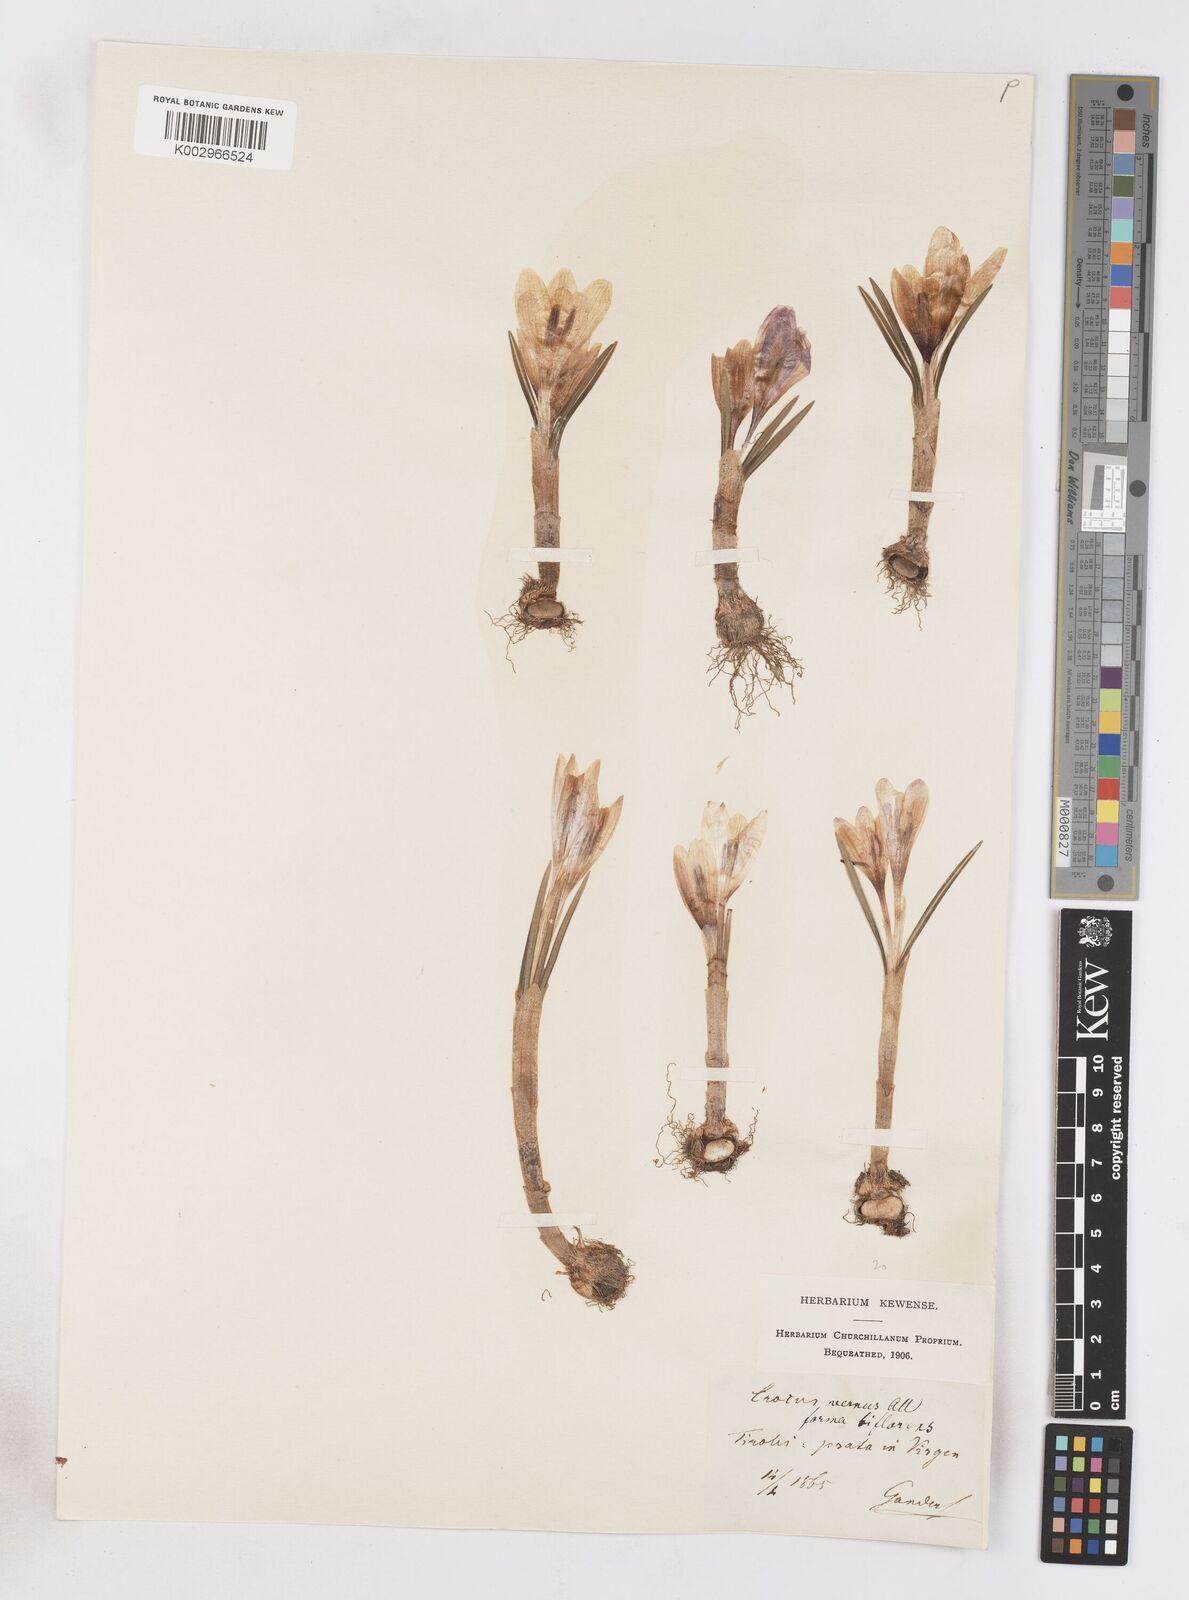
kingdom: Plantae
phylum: Tracheophyta
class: Liliopsida
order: Asparagales
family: Iridaceae
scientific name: Iridaceae
